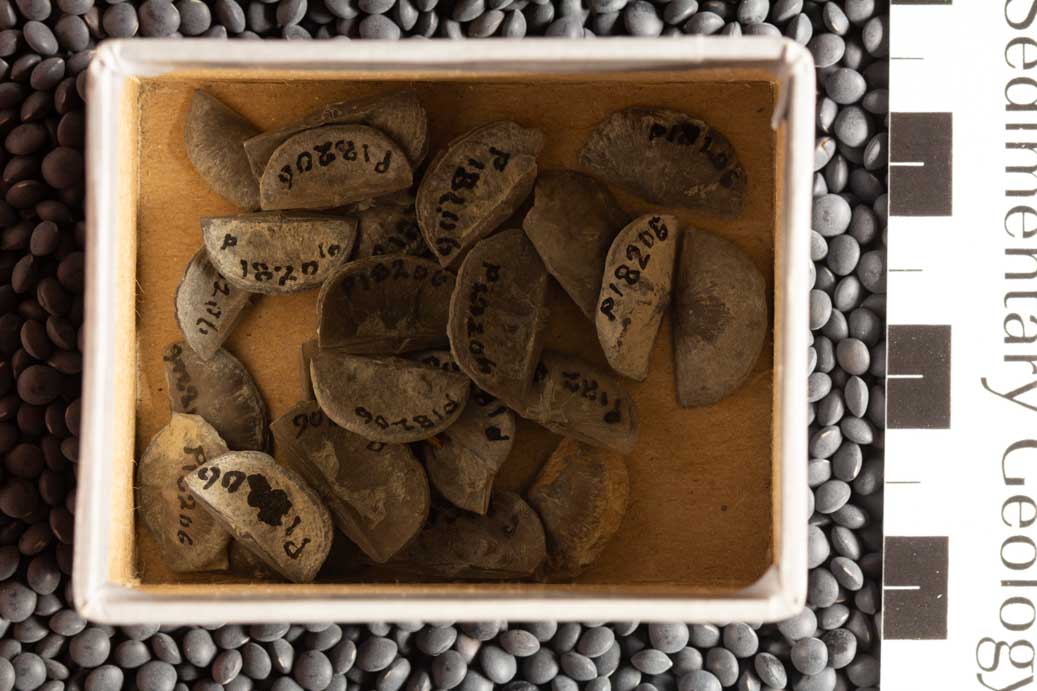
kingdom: Animalia
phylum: Brachiopoda
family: Sowerbyellidae
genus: Sowerbyella
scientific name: Sowerbyella
